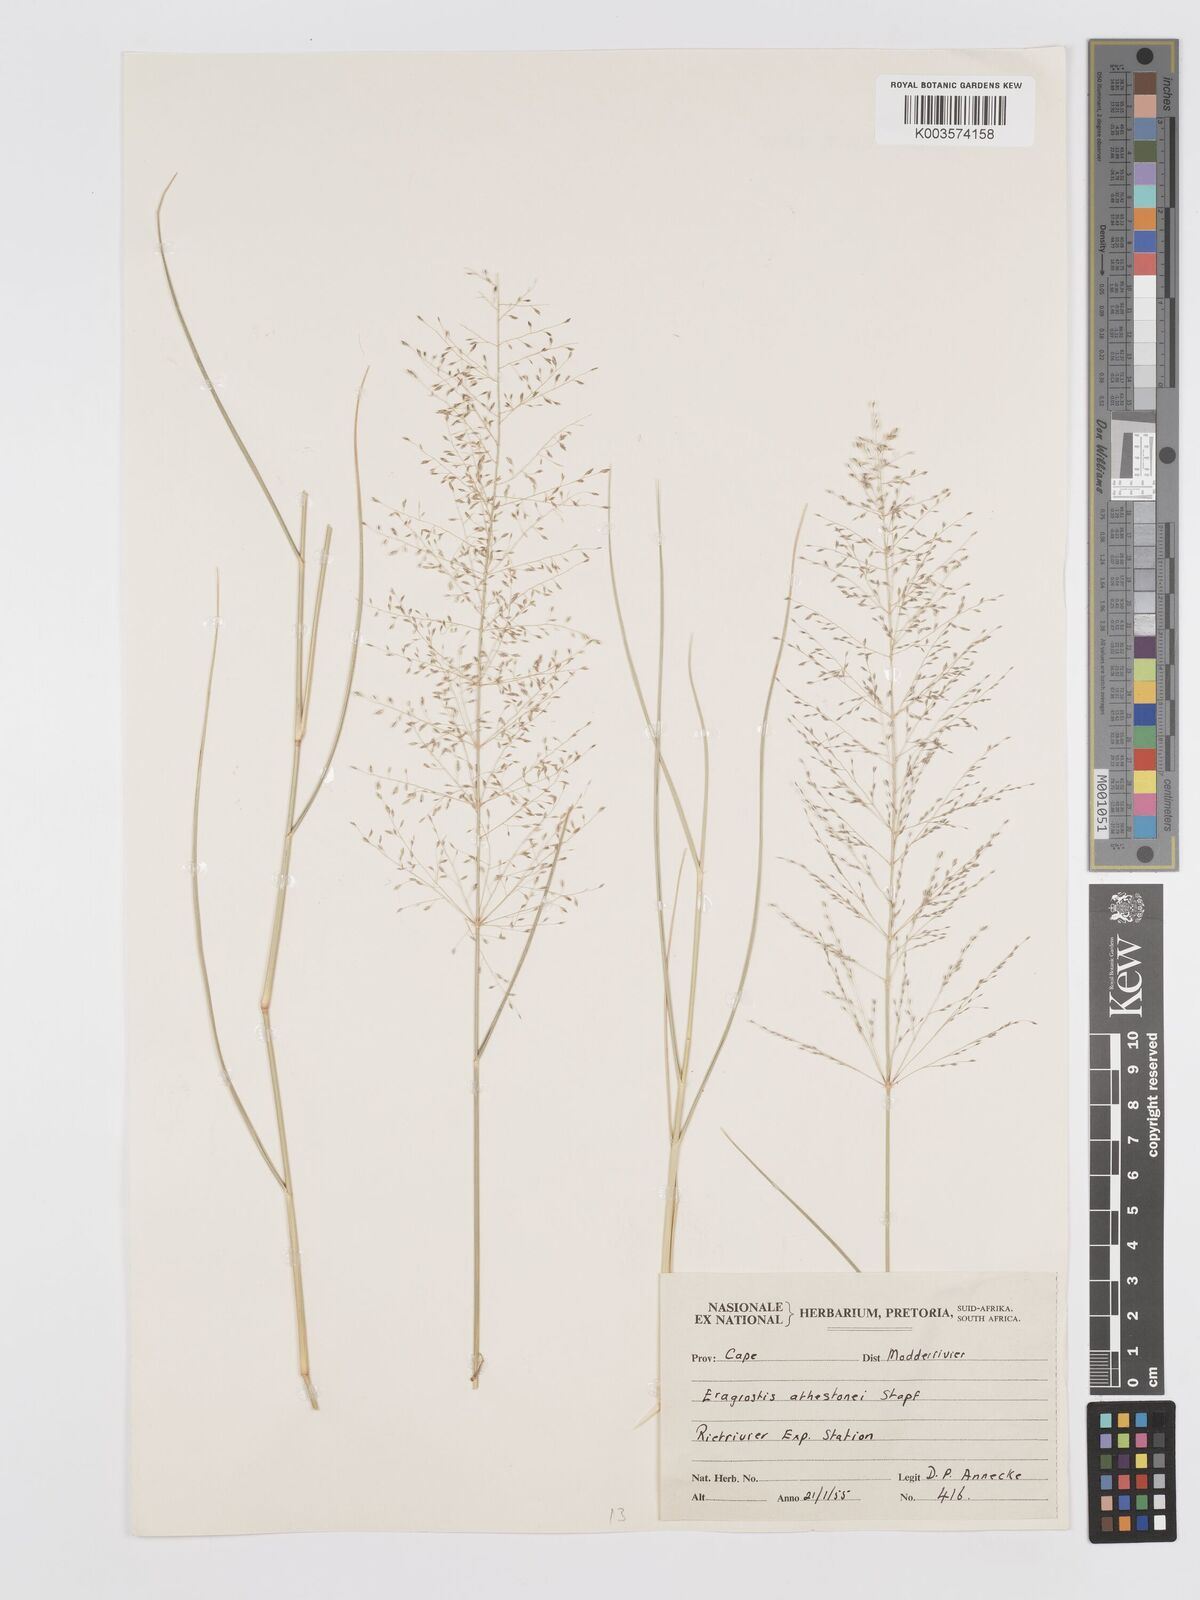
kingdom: Plantae
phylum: Tracheophyta
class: Liliopsida
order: Poales
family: Poaceae
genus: Eragrostis
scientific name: Eragrostis cylindriflora
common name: Cylinderflower lovegrass
